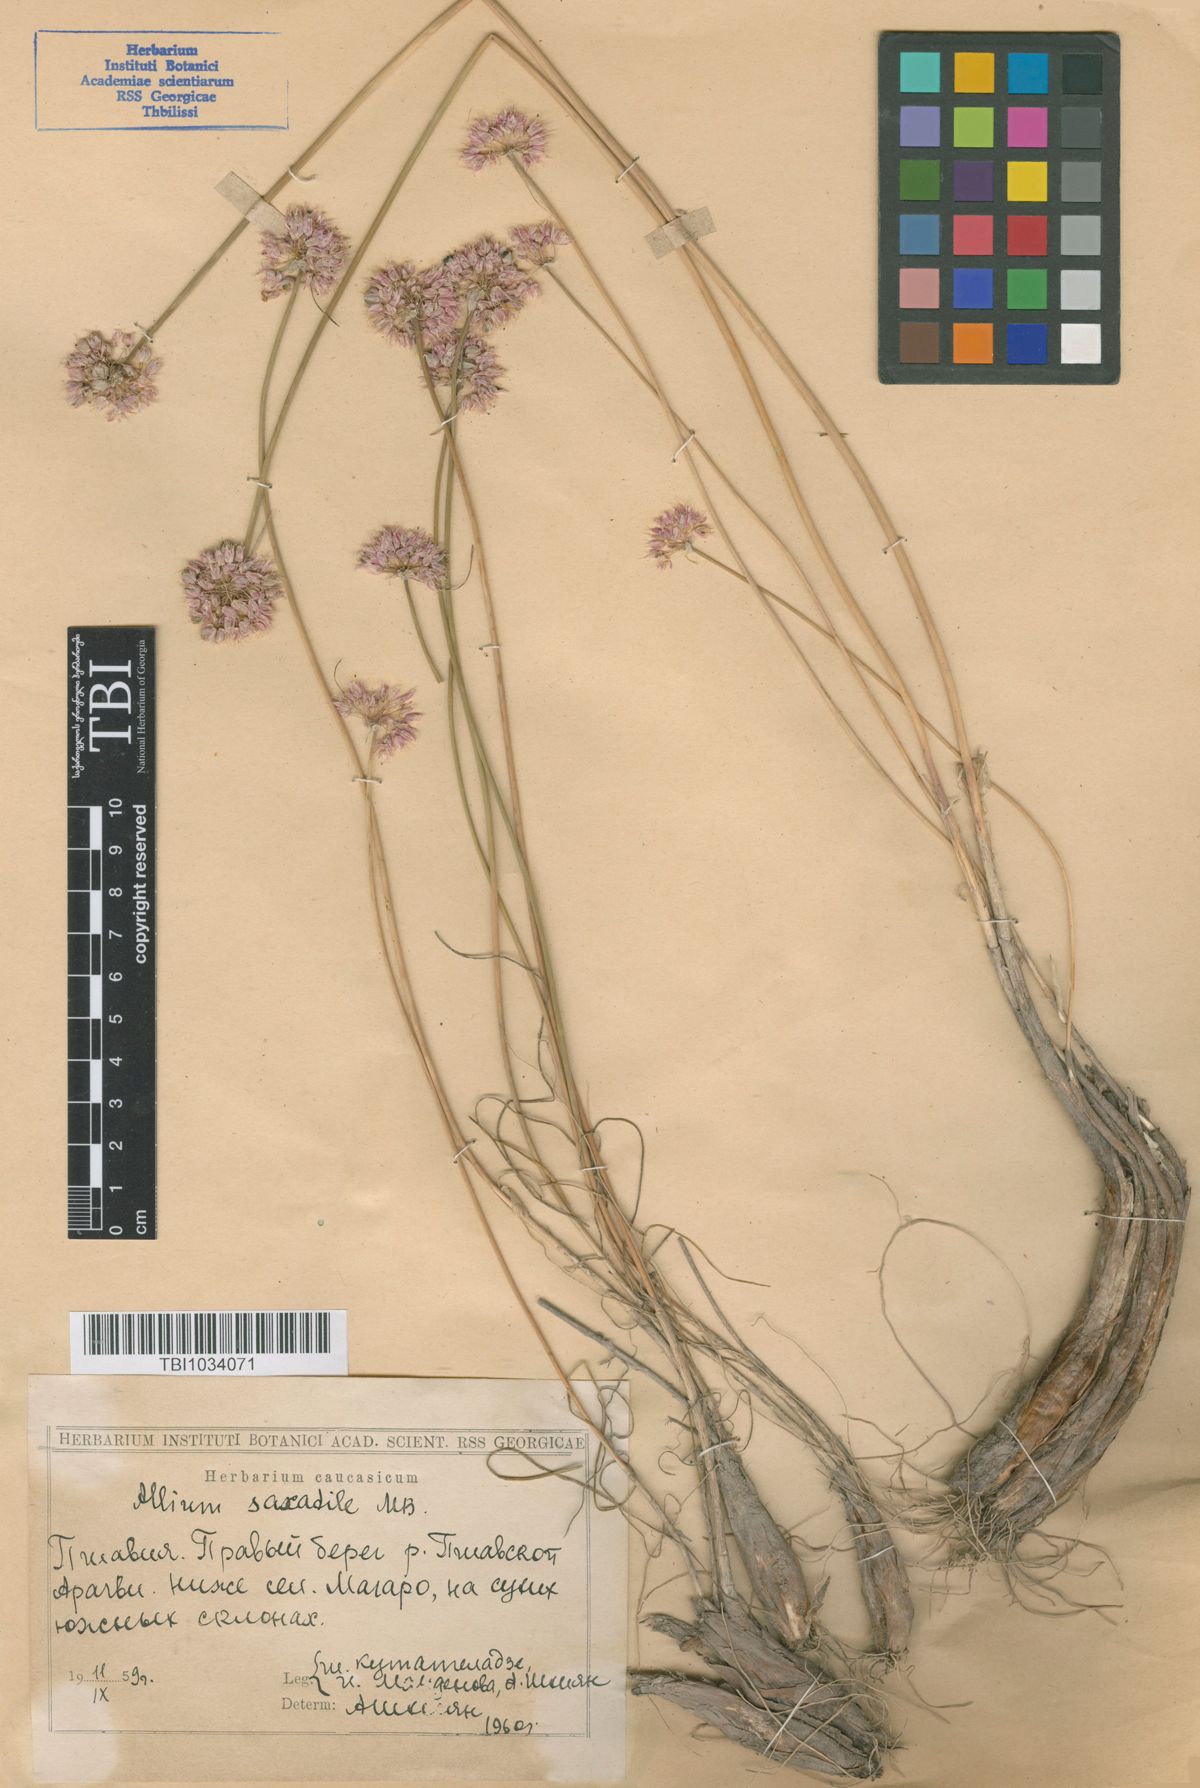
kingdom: Plantae
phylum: Tracheophyta
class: Liliopsida
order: Asparagales
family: Amaryllidaceae
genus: Allium
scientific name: Allium saxatile
